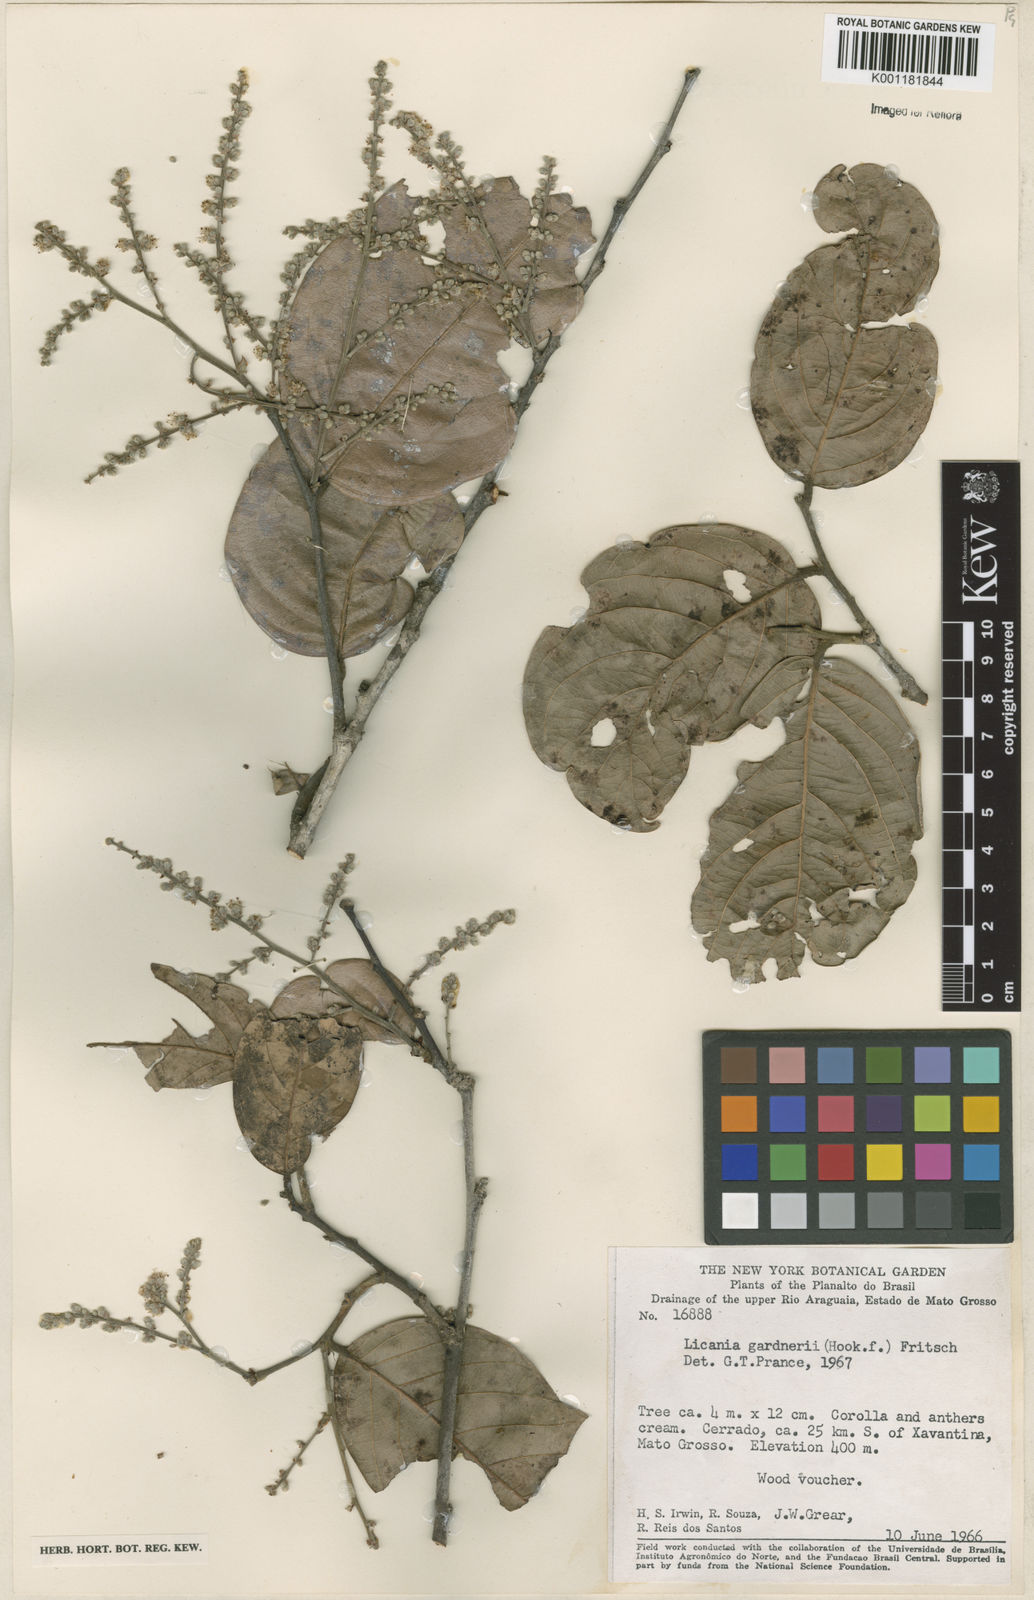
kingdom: Plantae
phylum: Tracheophyta
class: Magnoliopsida
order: Malpighiales
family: Chrysobalanaceae
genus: Leptobalanus
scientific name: Leptobalanus gardneri
